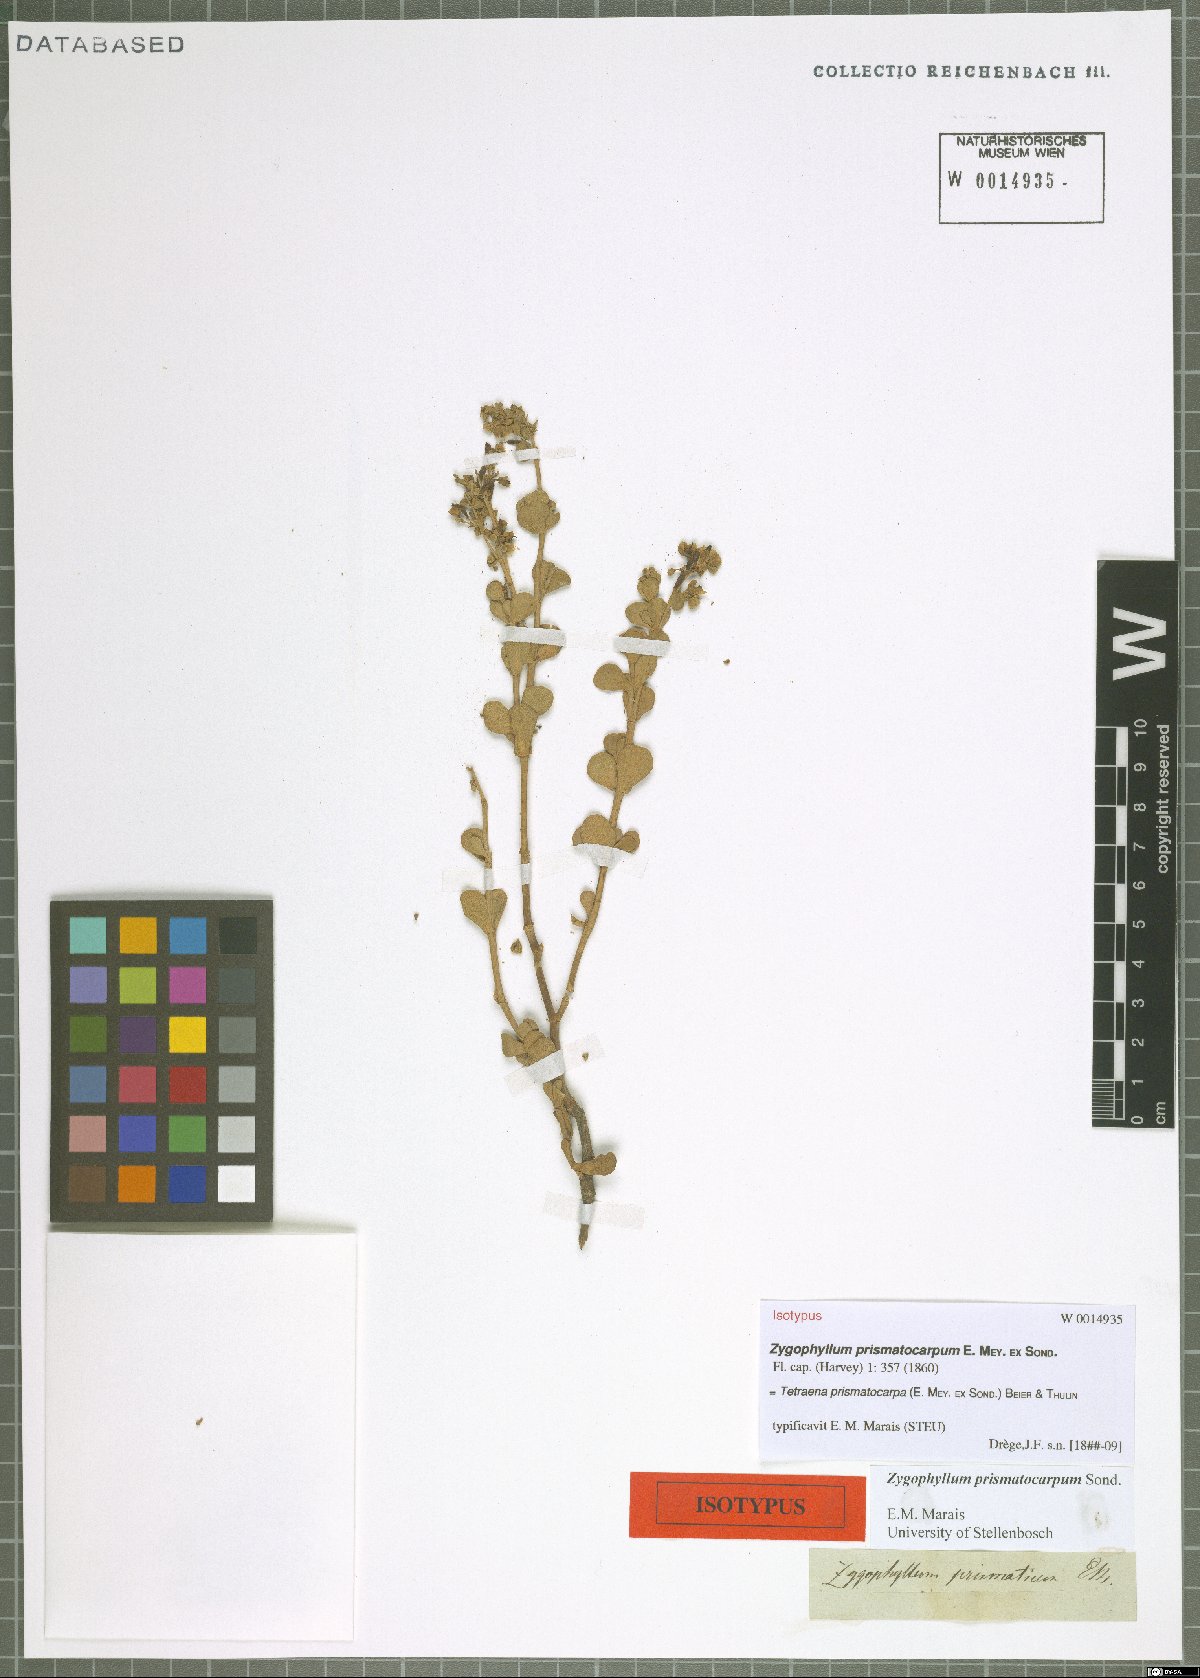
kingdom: Plantae
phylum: Tracheophyta
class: Magnoliopsida
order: Zygophyllales
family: Zygophyllaceae
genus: Tetraena
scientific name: Tetraena prismatocarpa
